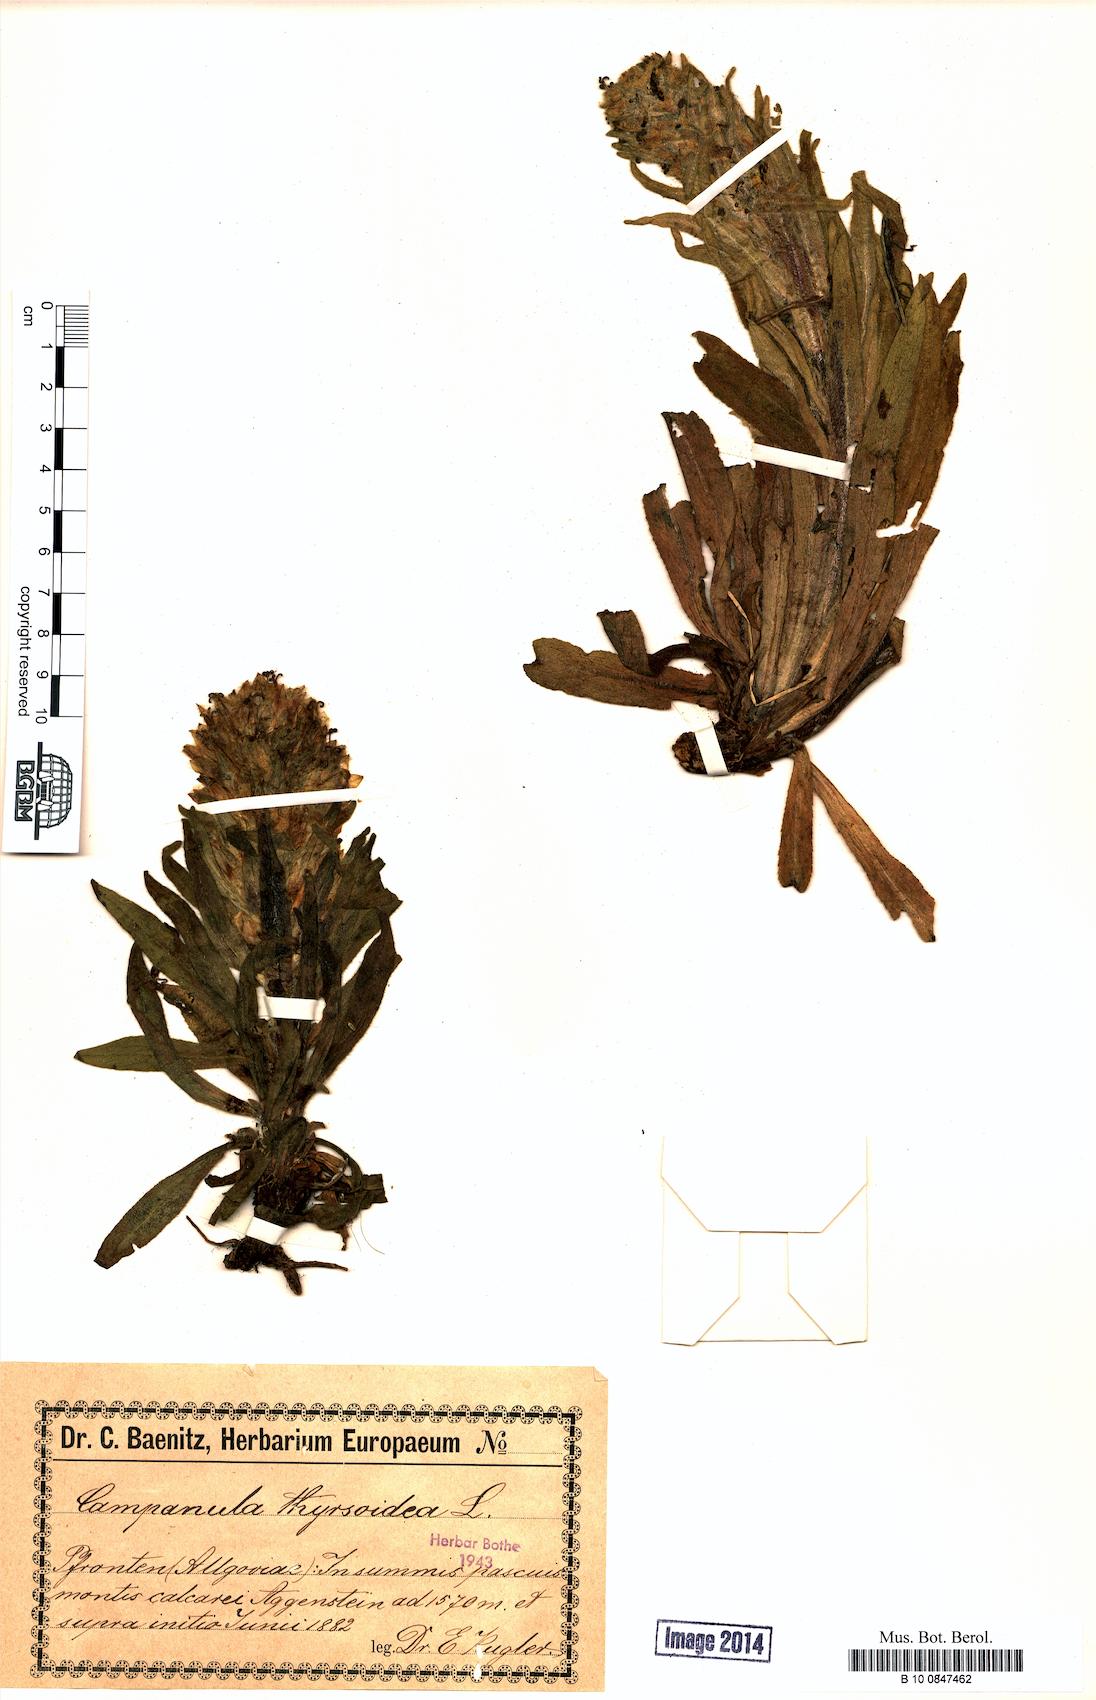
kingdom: Plantae
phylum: Tracheophyta
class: Magnoliopsida
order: Asterales
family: Campanulaceae
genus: Campanula
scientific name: Campanula thyrsoides
